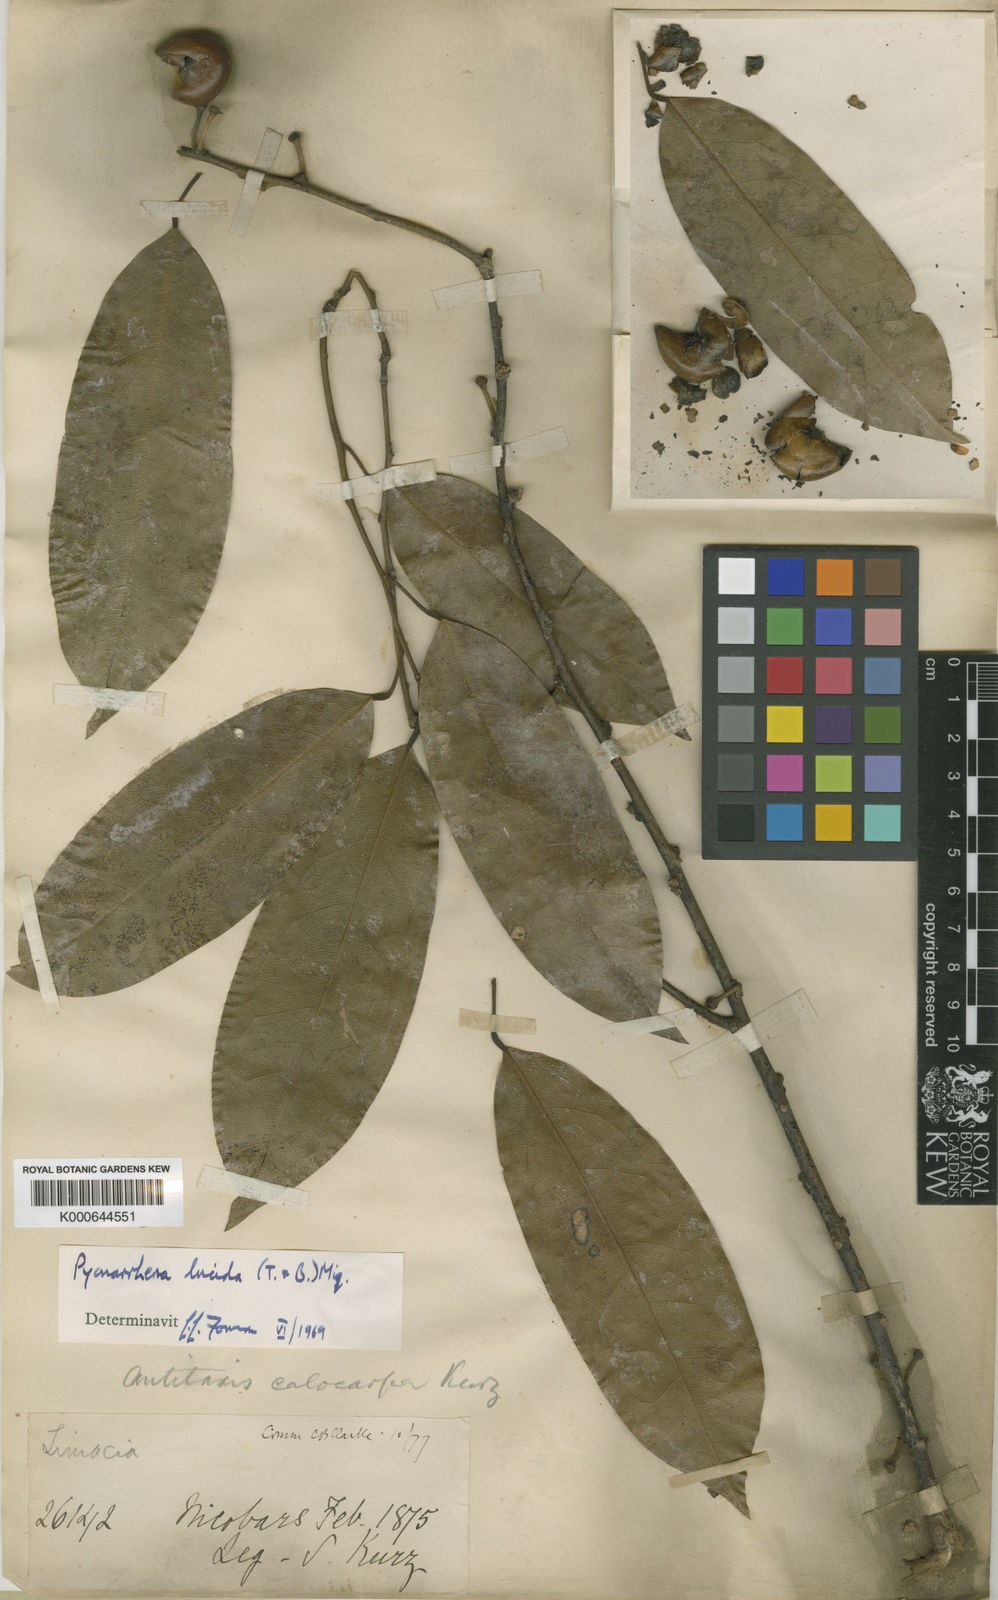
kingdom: Plantae
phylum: Tracheophyta
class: Magnoliopsida
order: Ranunculales
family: Menispermaceae
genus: Pycnarrhena
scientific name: Pycnarrhena lucida
